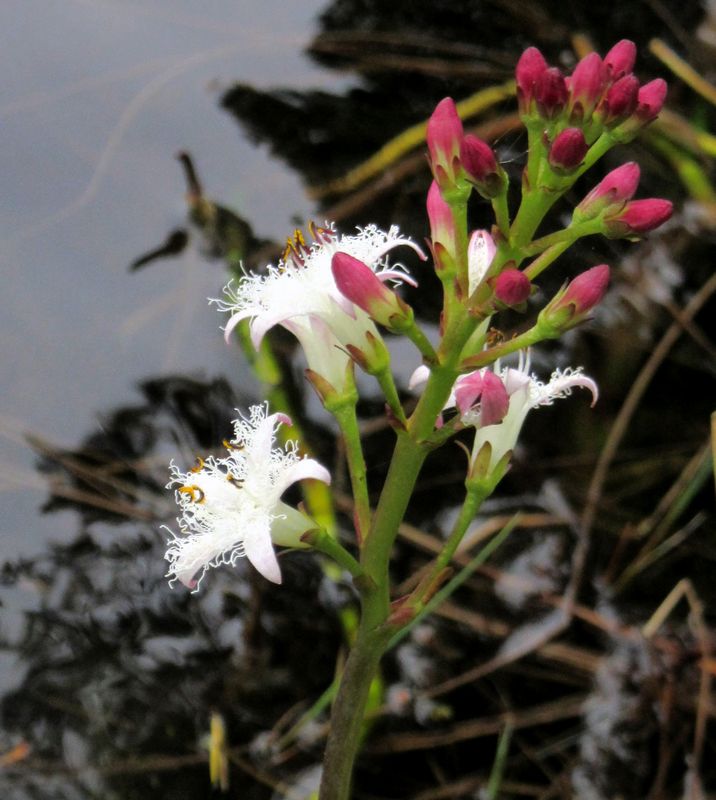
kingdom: Plantae
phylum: Tracheophyta
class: Magnoliopsida
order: Asterales
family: Menyanthaceae
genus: Menyanthes
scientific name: Menyanthes trifoliata
